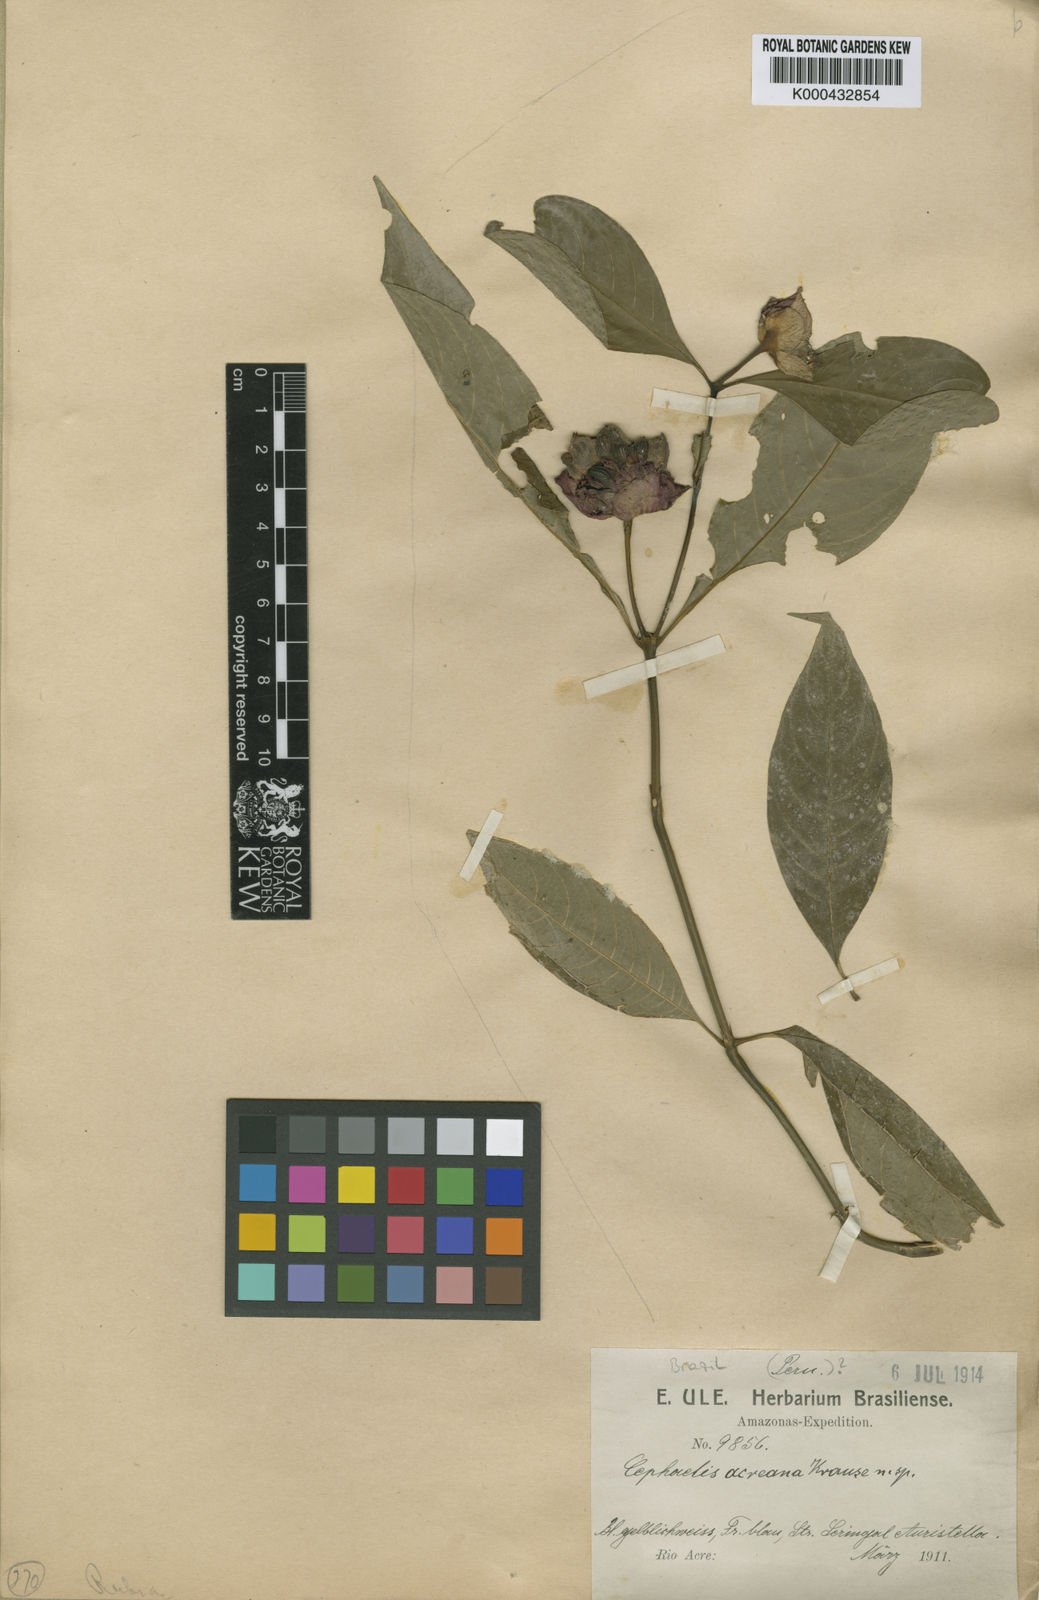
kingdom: Plantae
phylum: Tracheophyta
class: Magnoliopsida
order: Gentianales
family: Rubiaceae
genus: Psychotria
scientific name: Psychotria acreana
